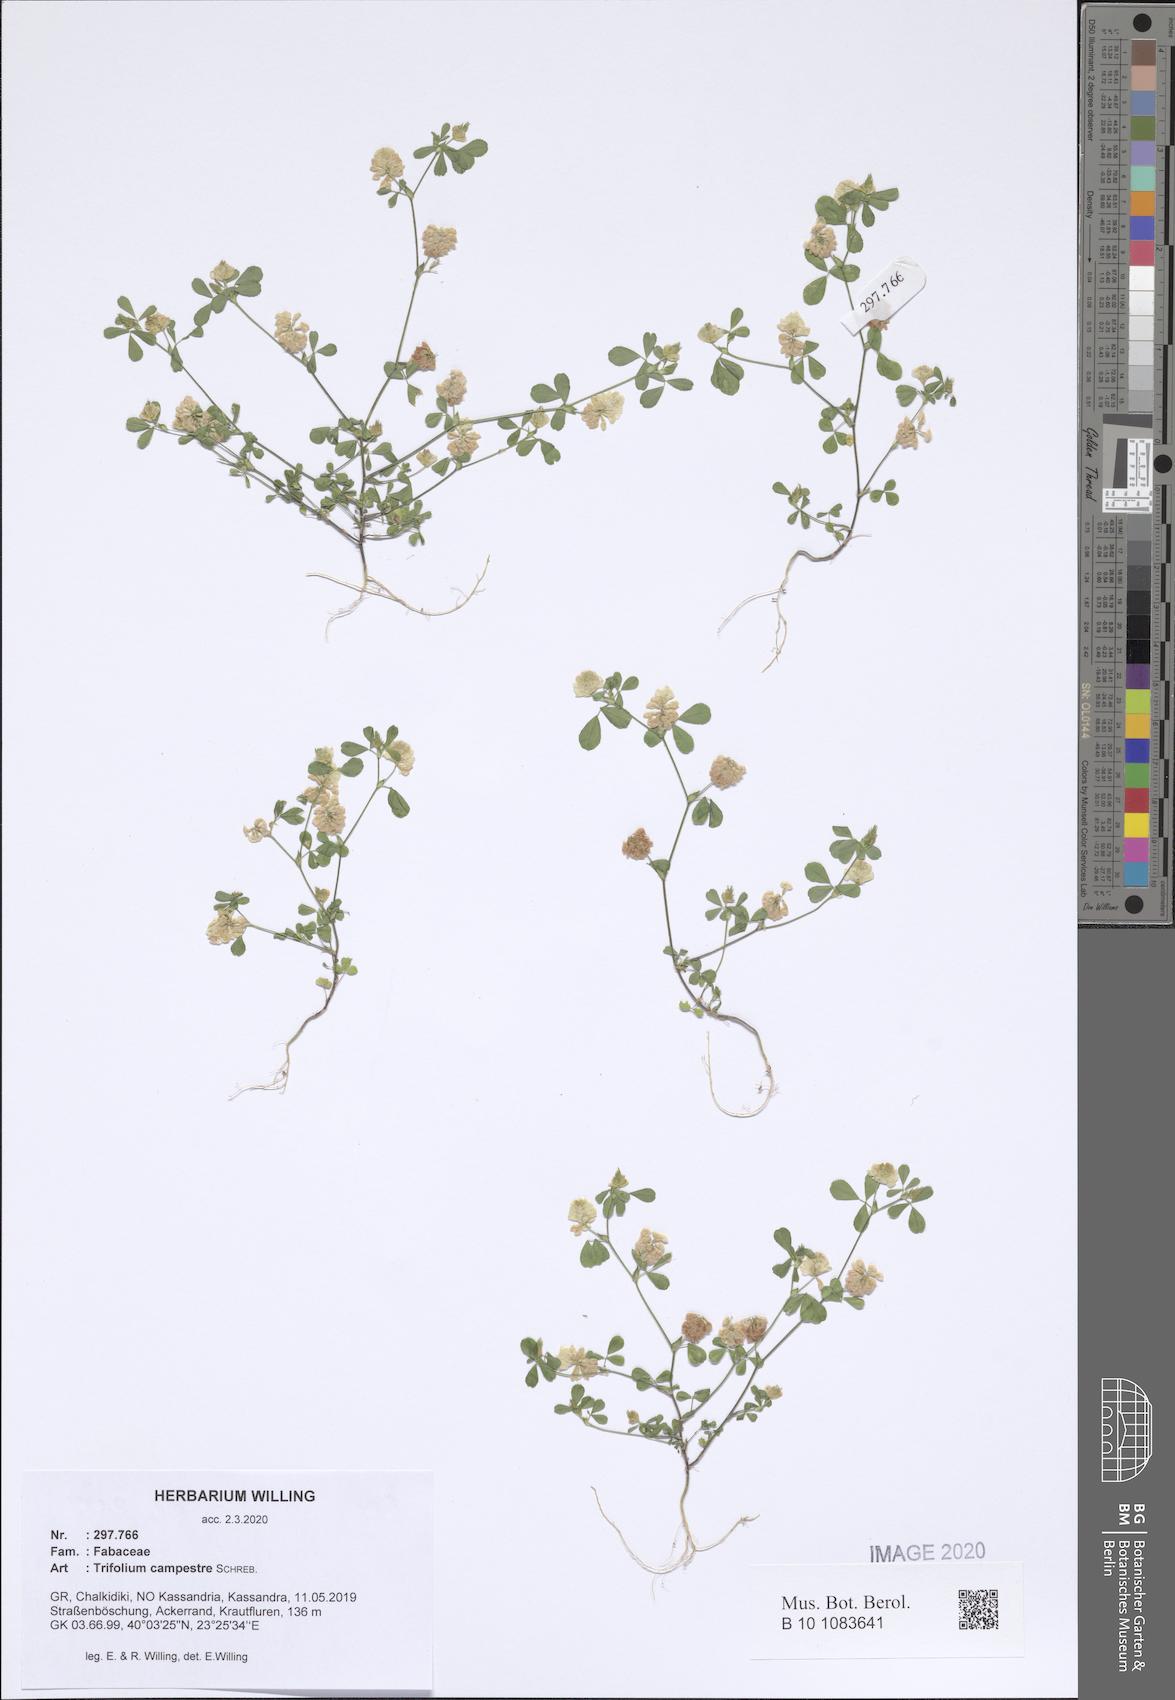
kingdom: Plantae
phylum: Tracheophyta
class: Magnoliopsida
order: Fabales
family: Fabaceae
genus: Trifolium
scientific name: Trifolium campestre
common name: Field clover
